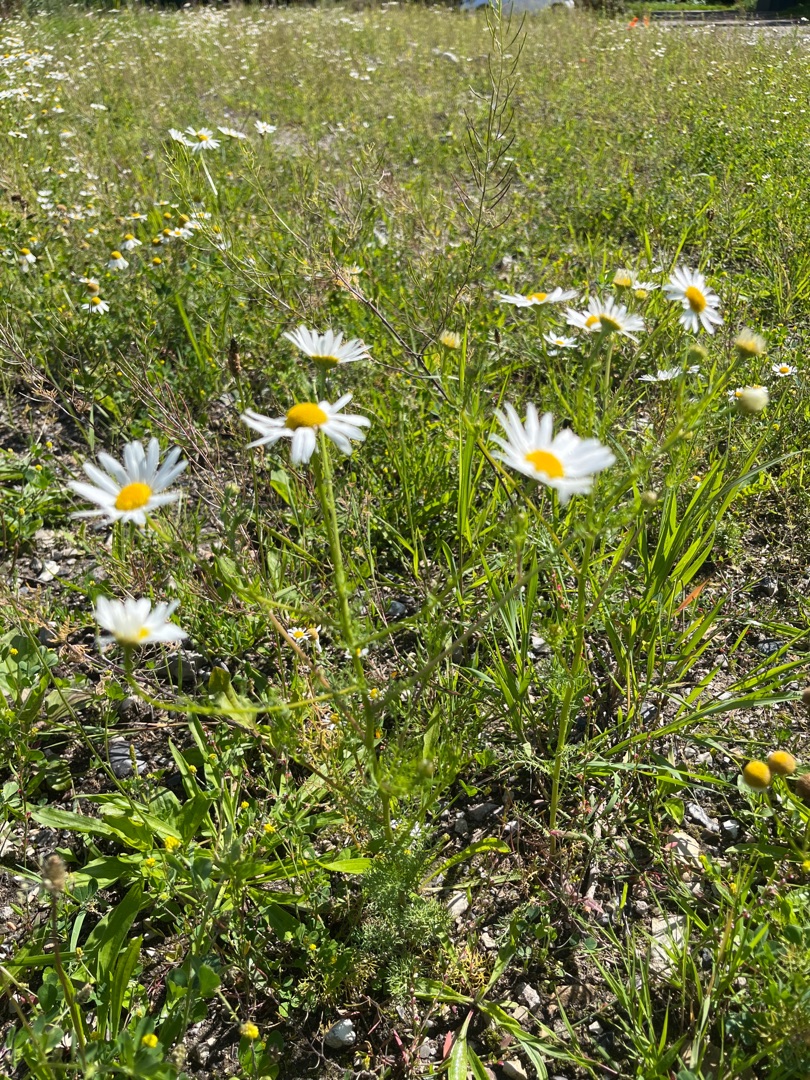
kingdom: Plantae
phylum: Tracheophyta
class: Magnoliopsida
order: Asterales
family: Asteraceae
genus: Tripleurospermum
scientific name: Tripleurospermum inodorum
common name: Lugtløs kamille
